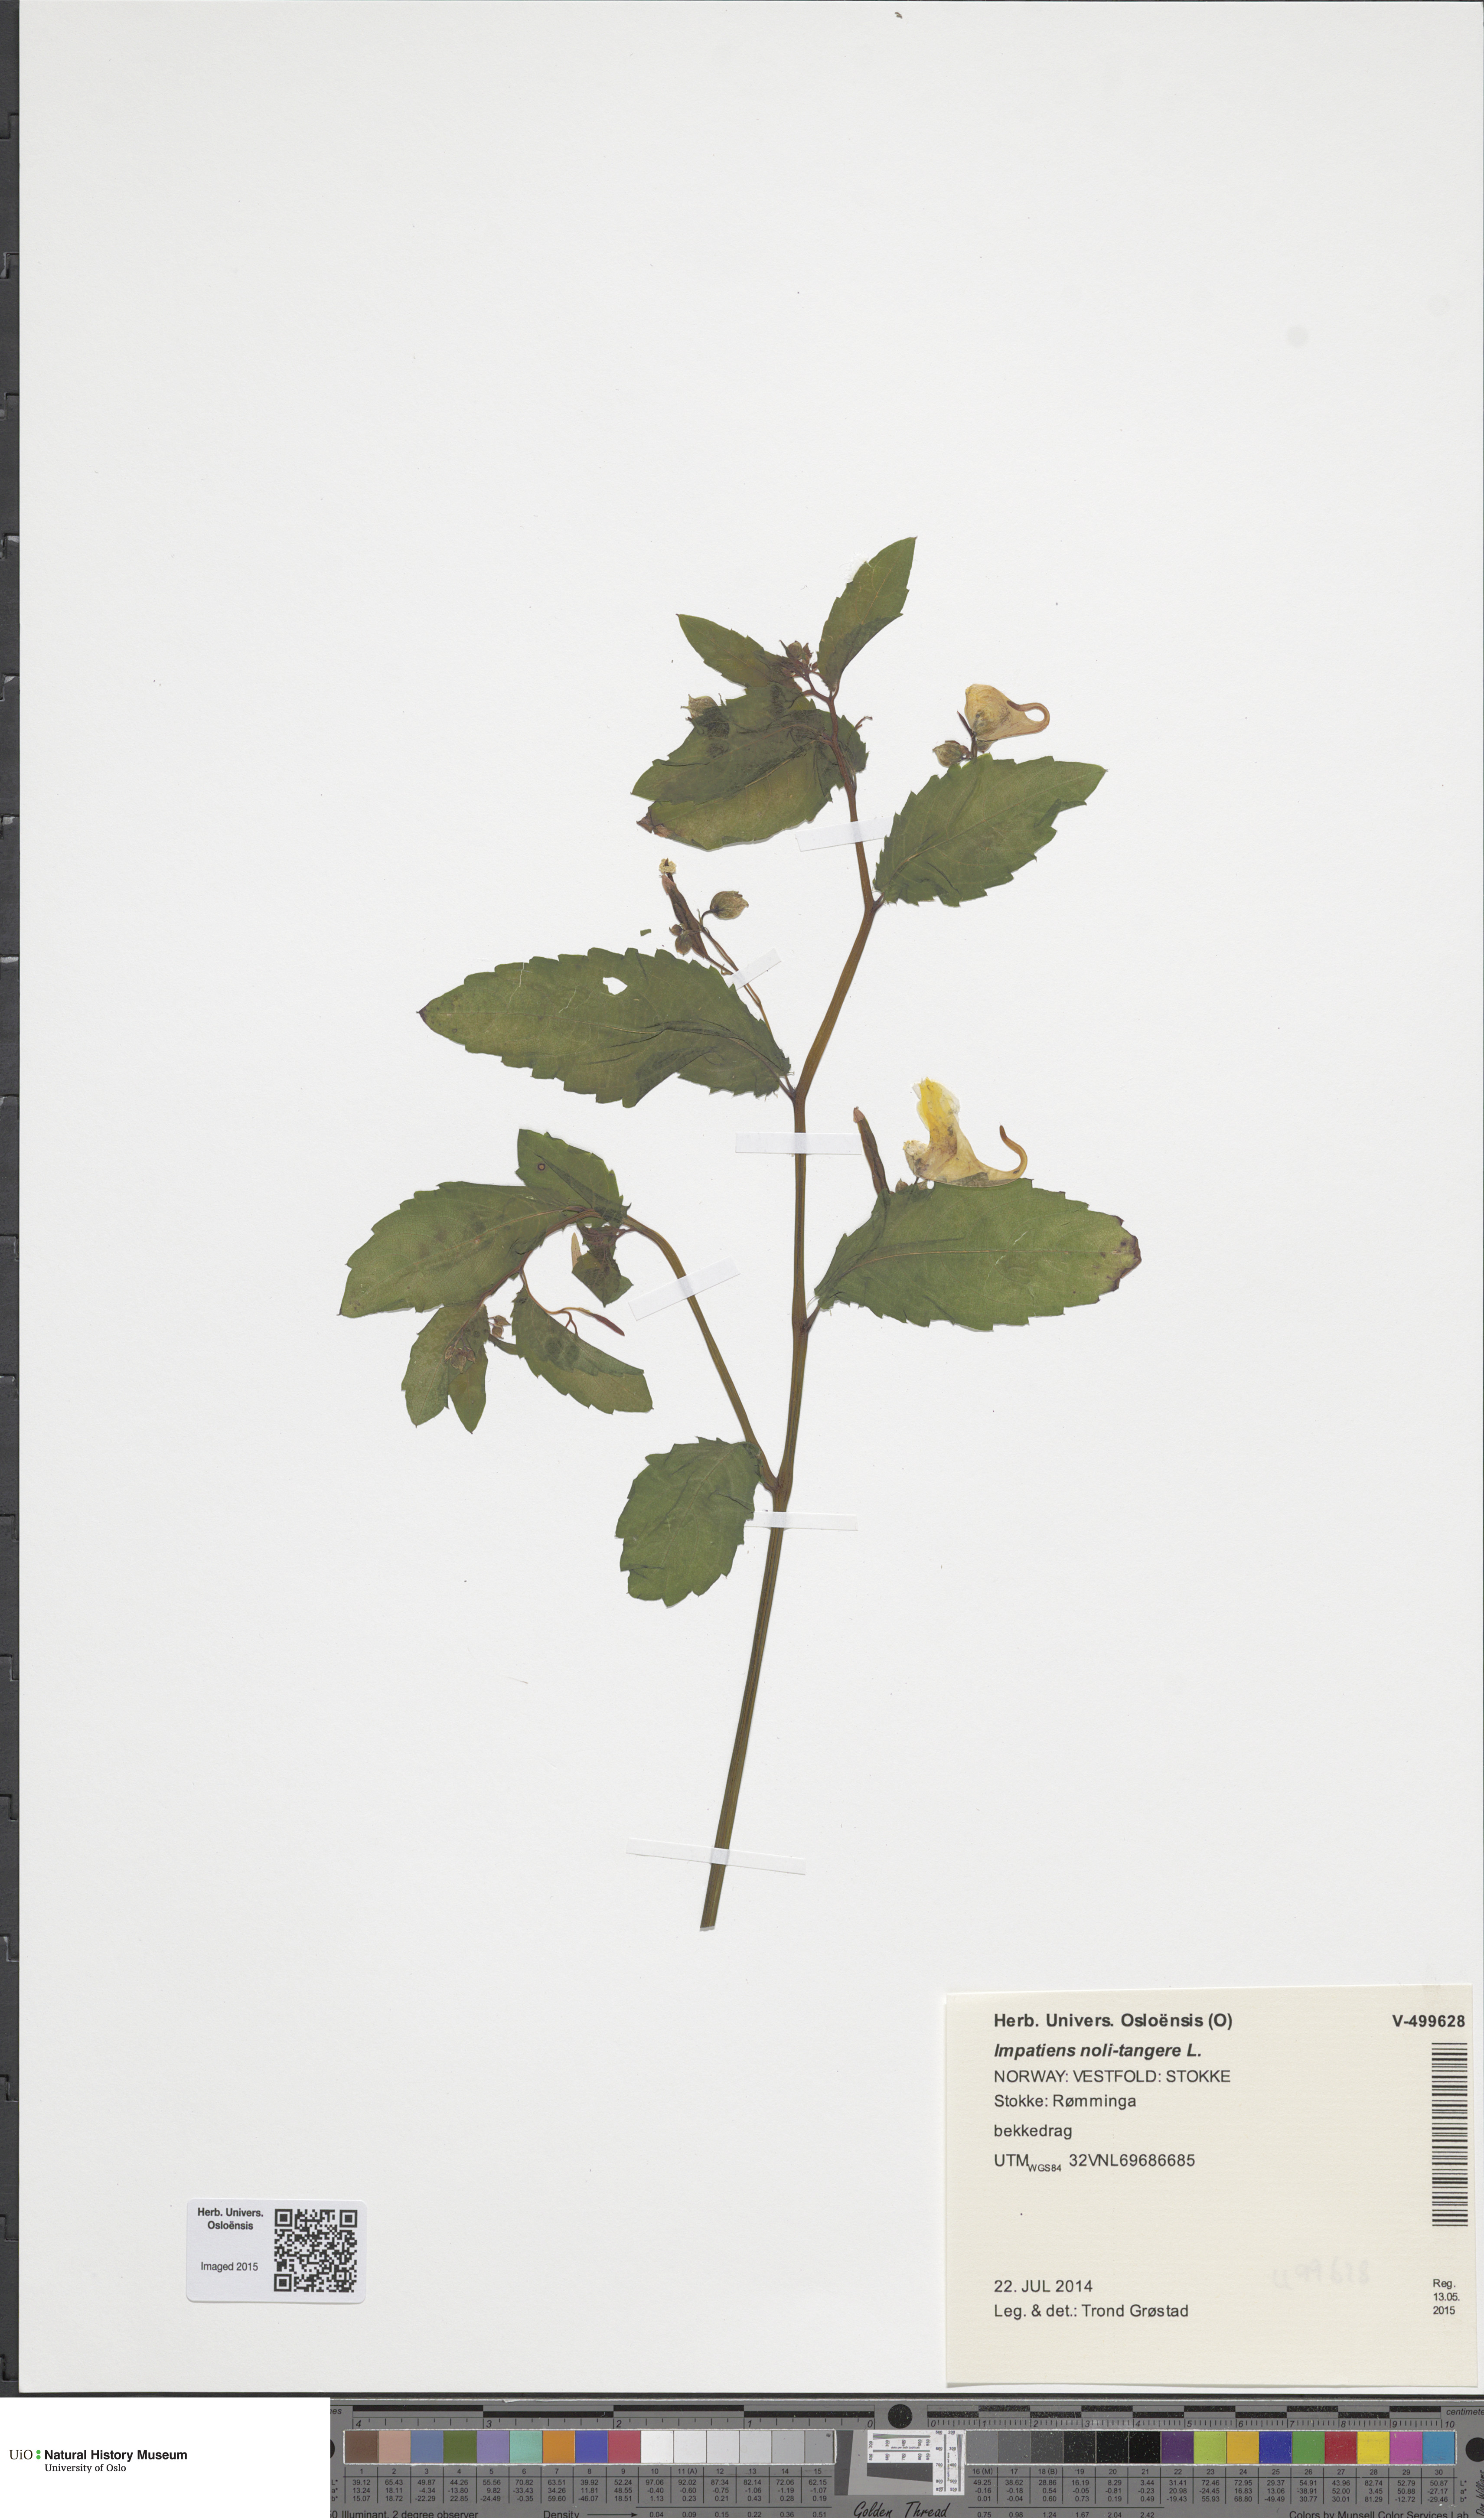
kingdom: Plantae
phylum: Tracheophyta
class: Magnoliopsida
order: Ericales
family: Balsaminaceae
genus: Impatiens
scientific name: Impatiens noli-tangere
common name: Touch-me-not balsam
